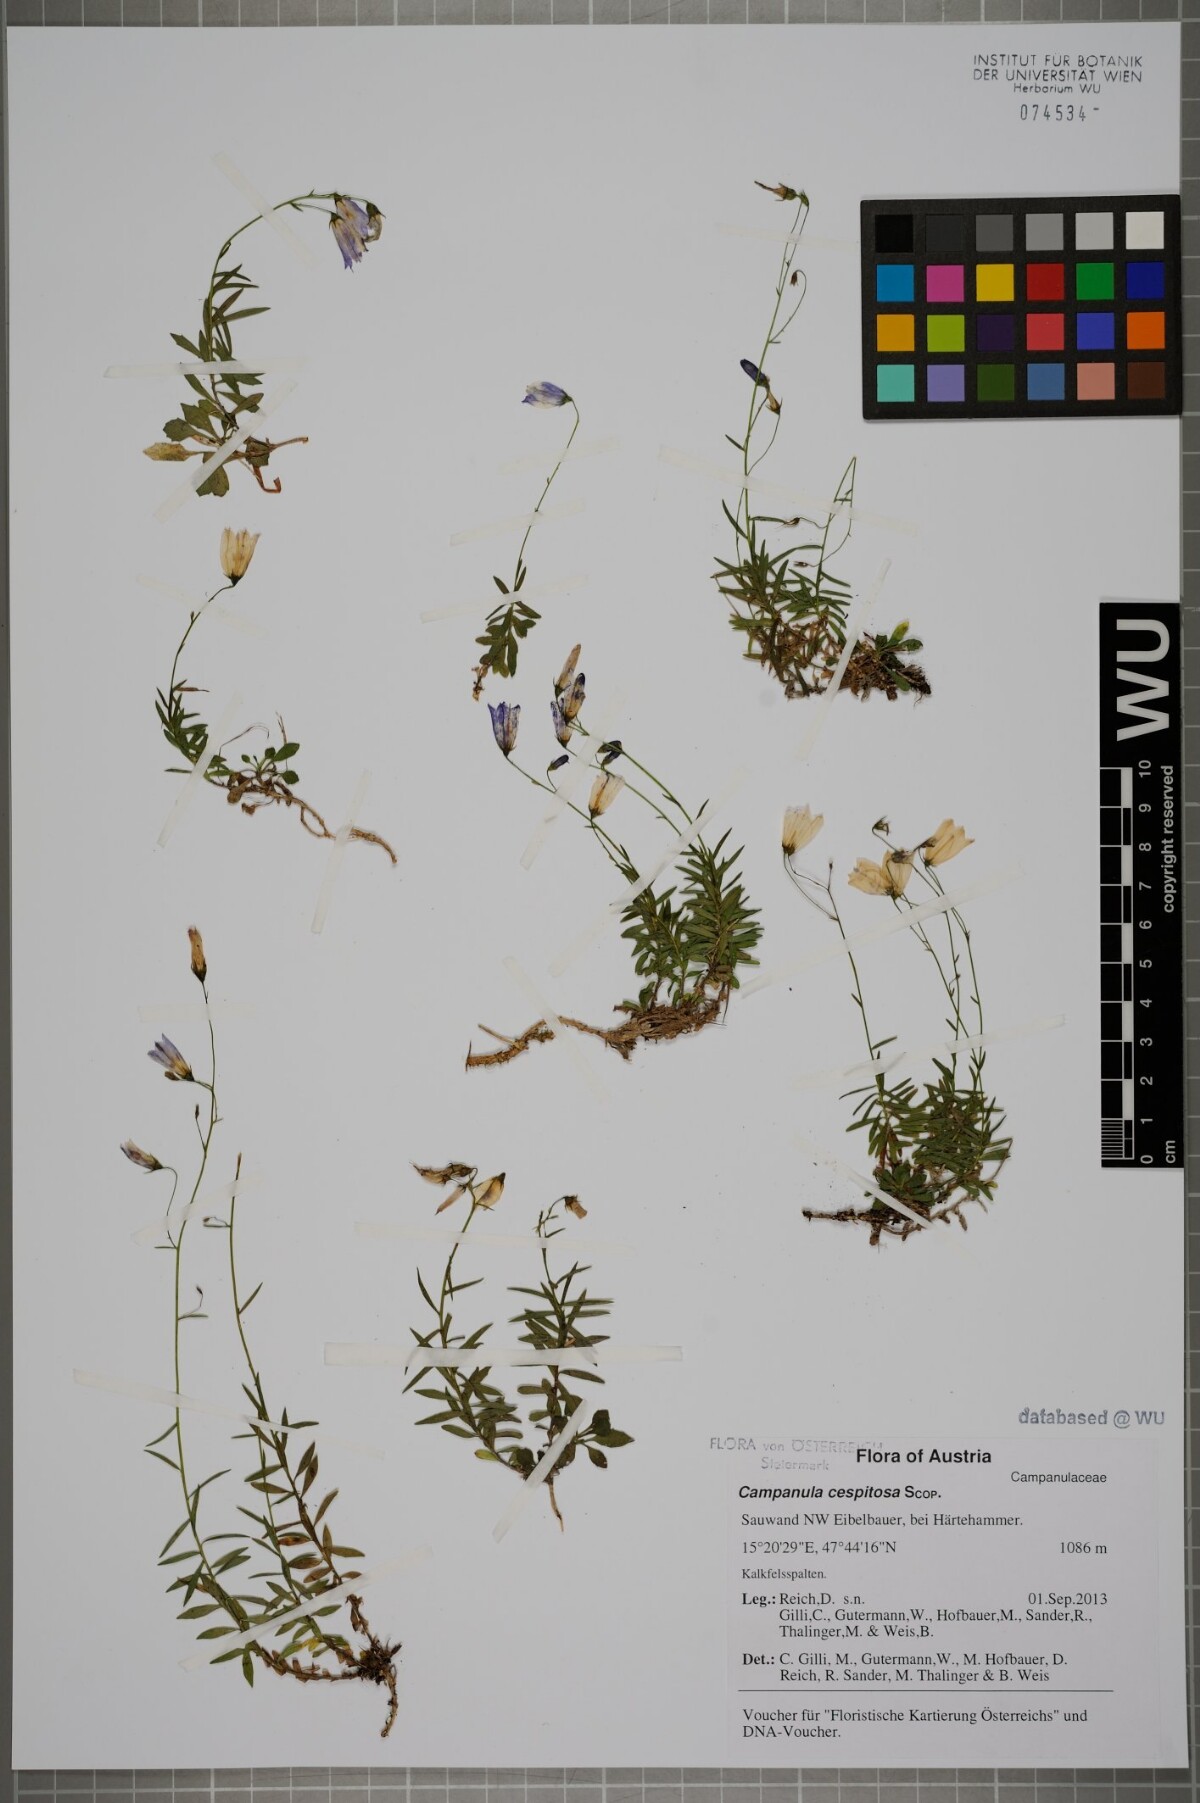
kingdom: Plantae
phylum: Tracheophyta
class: Magnoliopsida
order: Asterales
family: Campanulaceae
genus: Campanula
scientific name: Campanula cespitosa
